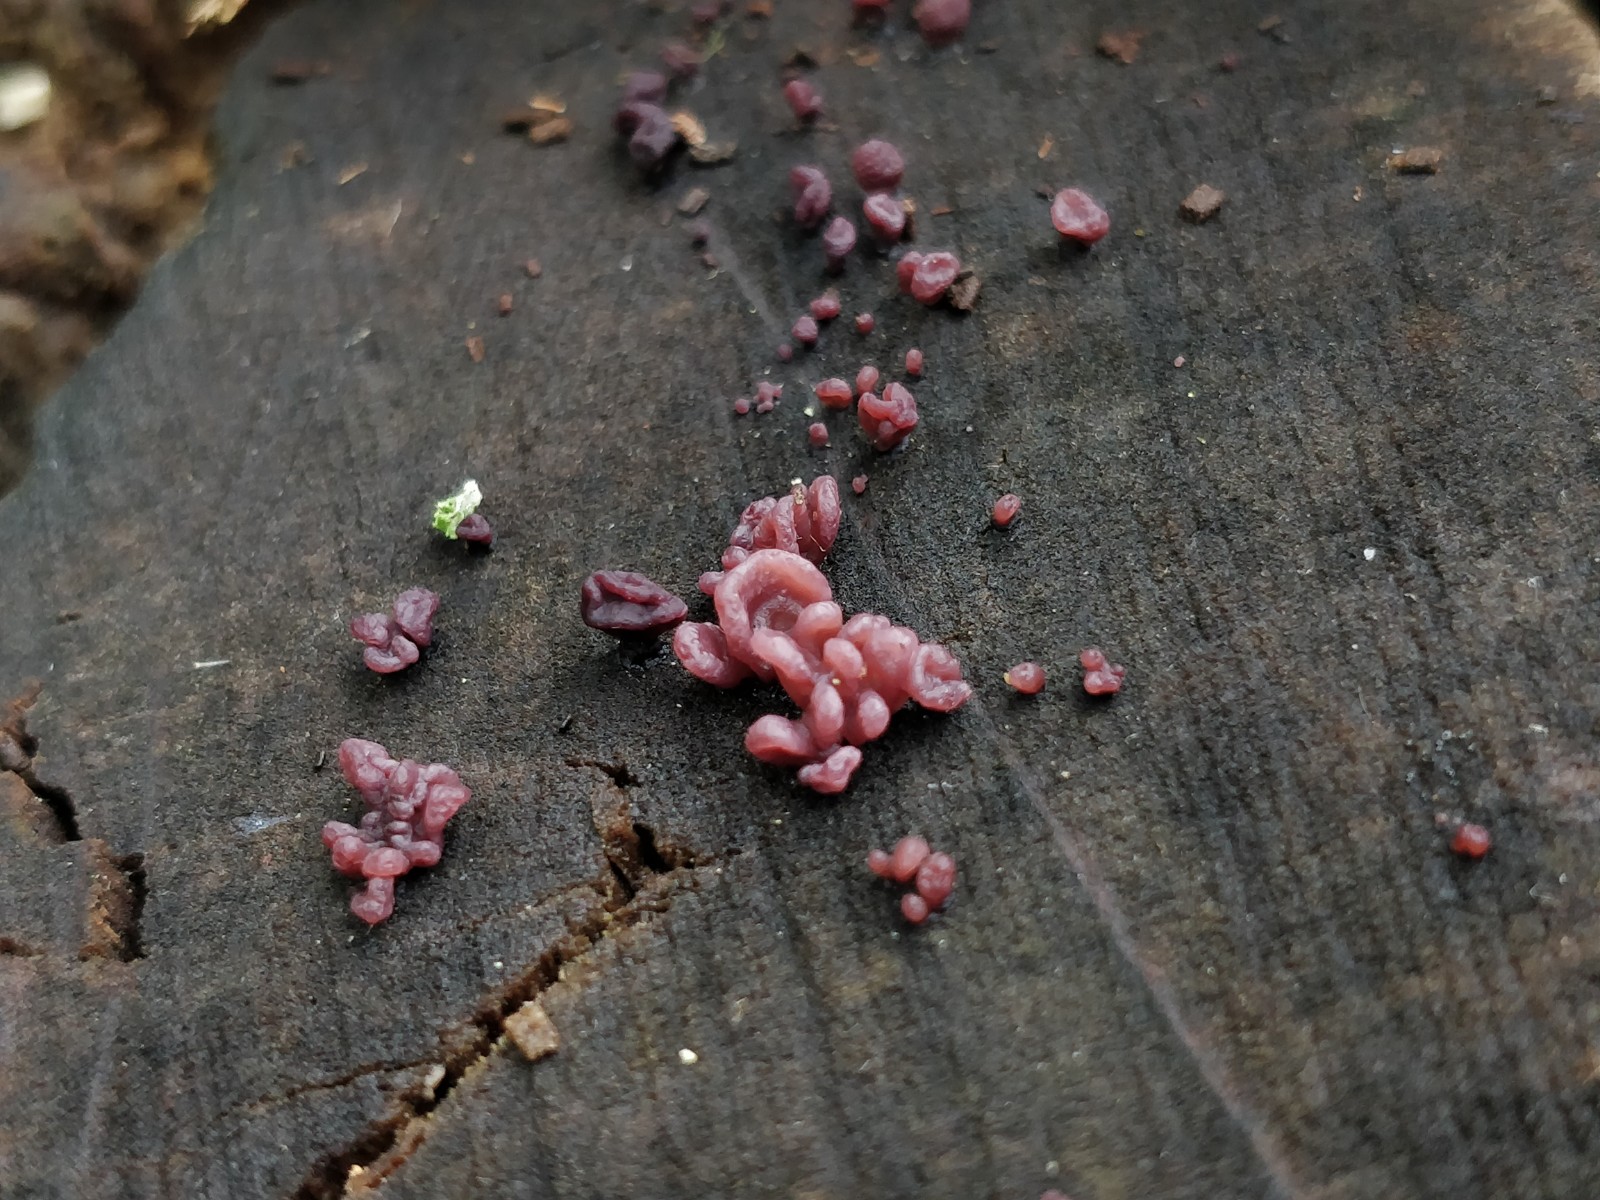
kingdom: Fungi
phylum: Ascomycota
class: Leotiomycetes
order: Helotiales
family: Gelatinodiscaceae
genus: Ascocoryne
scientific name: Ascocoryne sarcoides
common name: rødlilla sejskive
